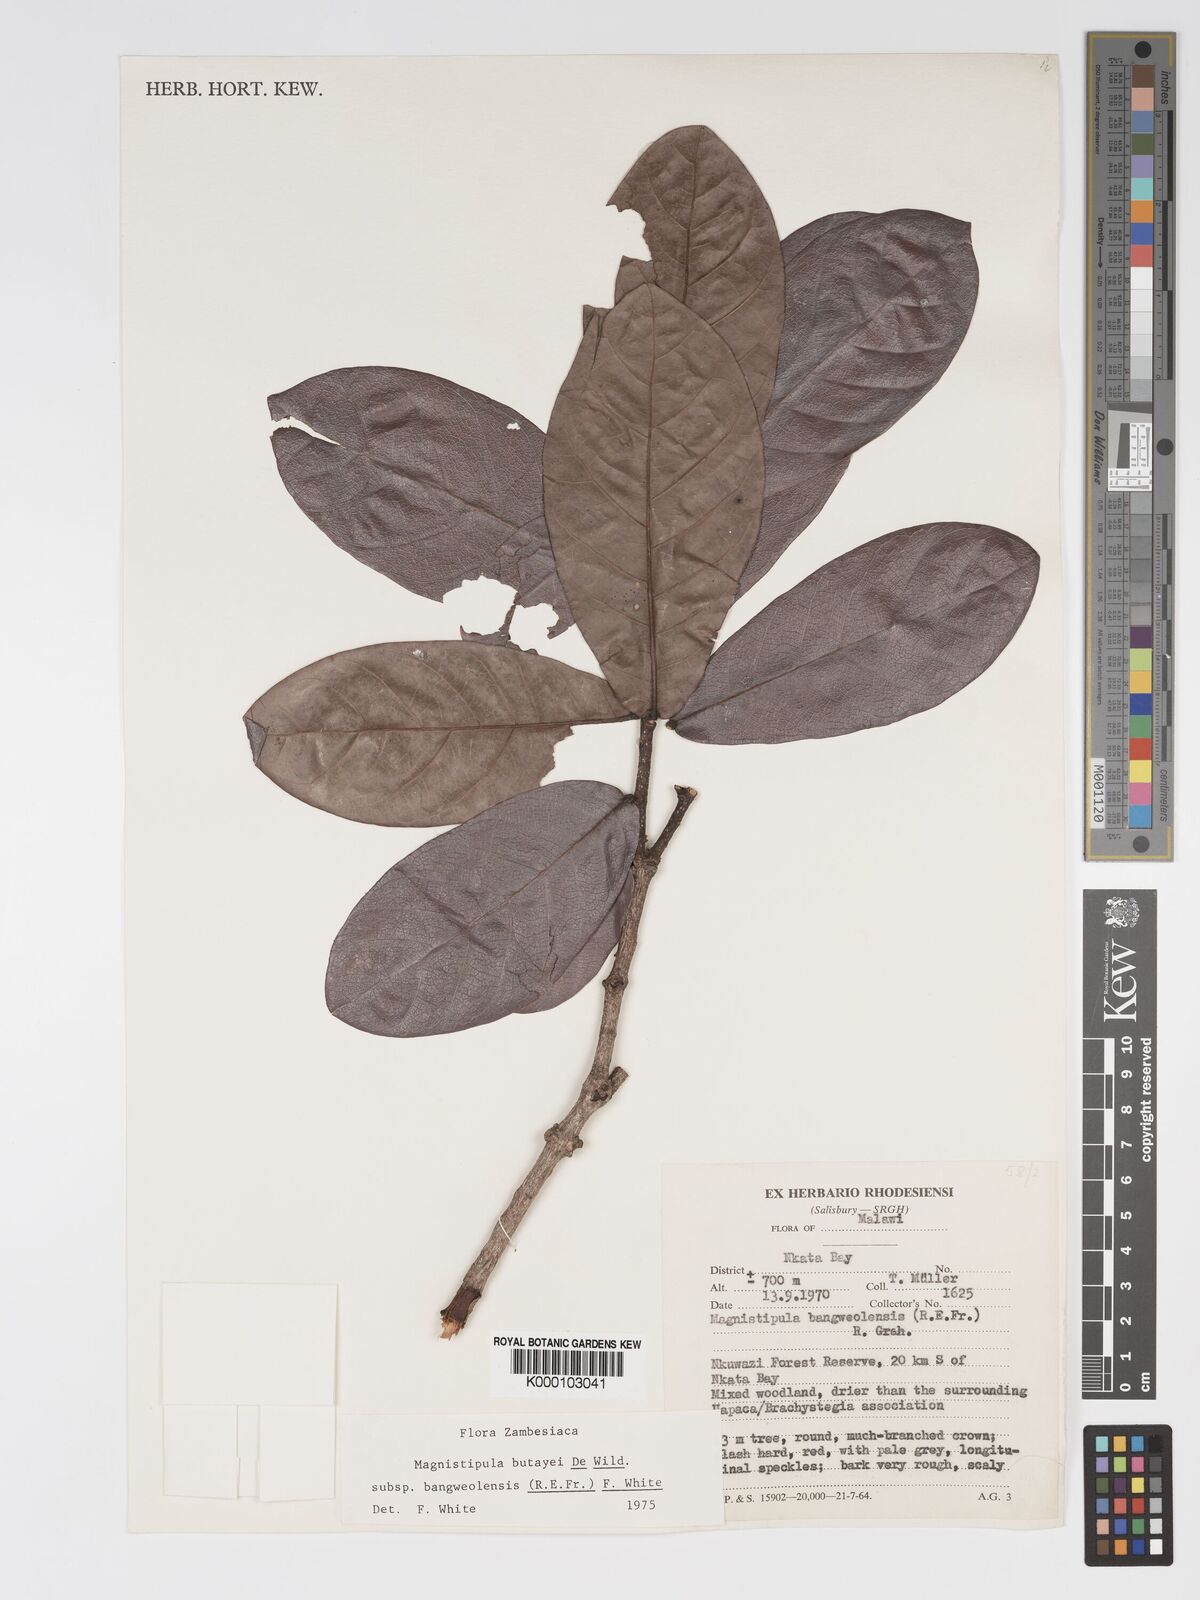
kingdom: Plantae
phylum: Tracheophyta
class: Magnoliopsida
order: Malpighiales
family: Chrysobalanaceae
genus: Magnistipula
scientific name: Magnistipula butayei
